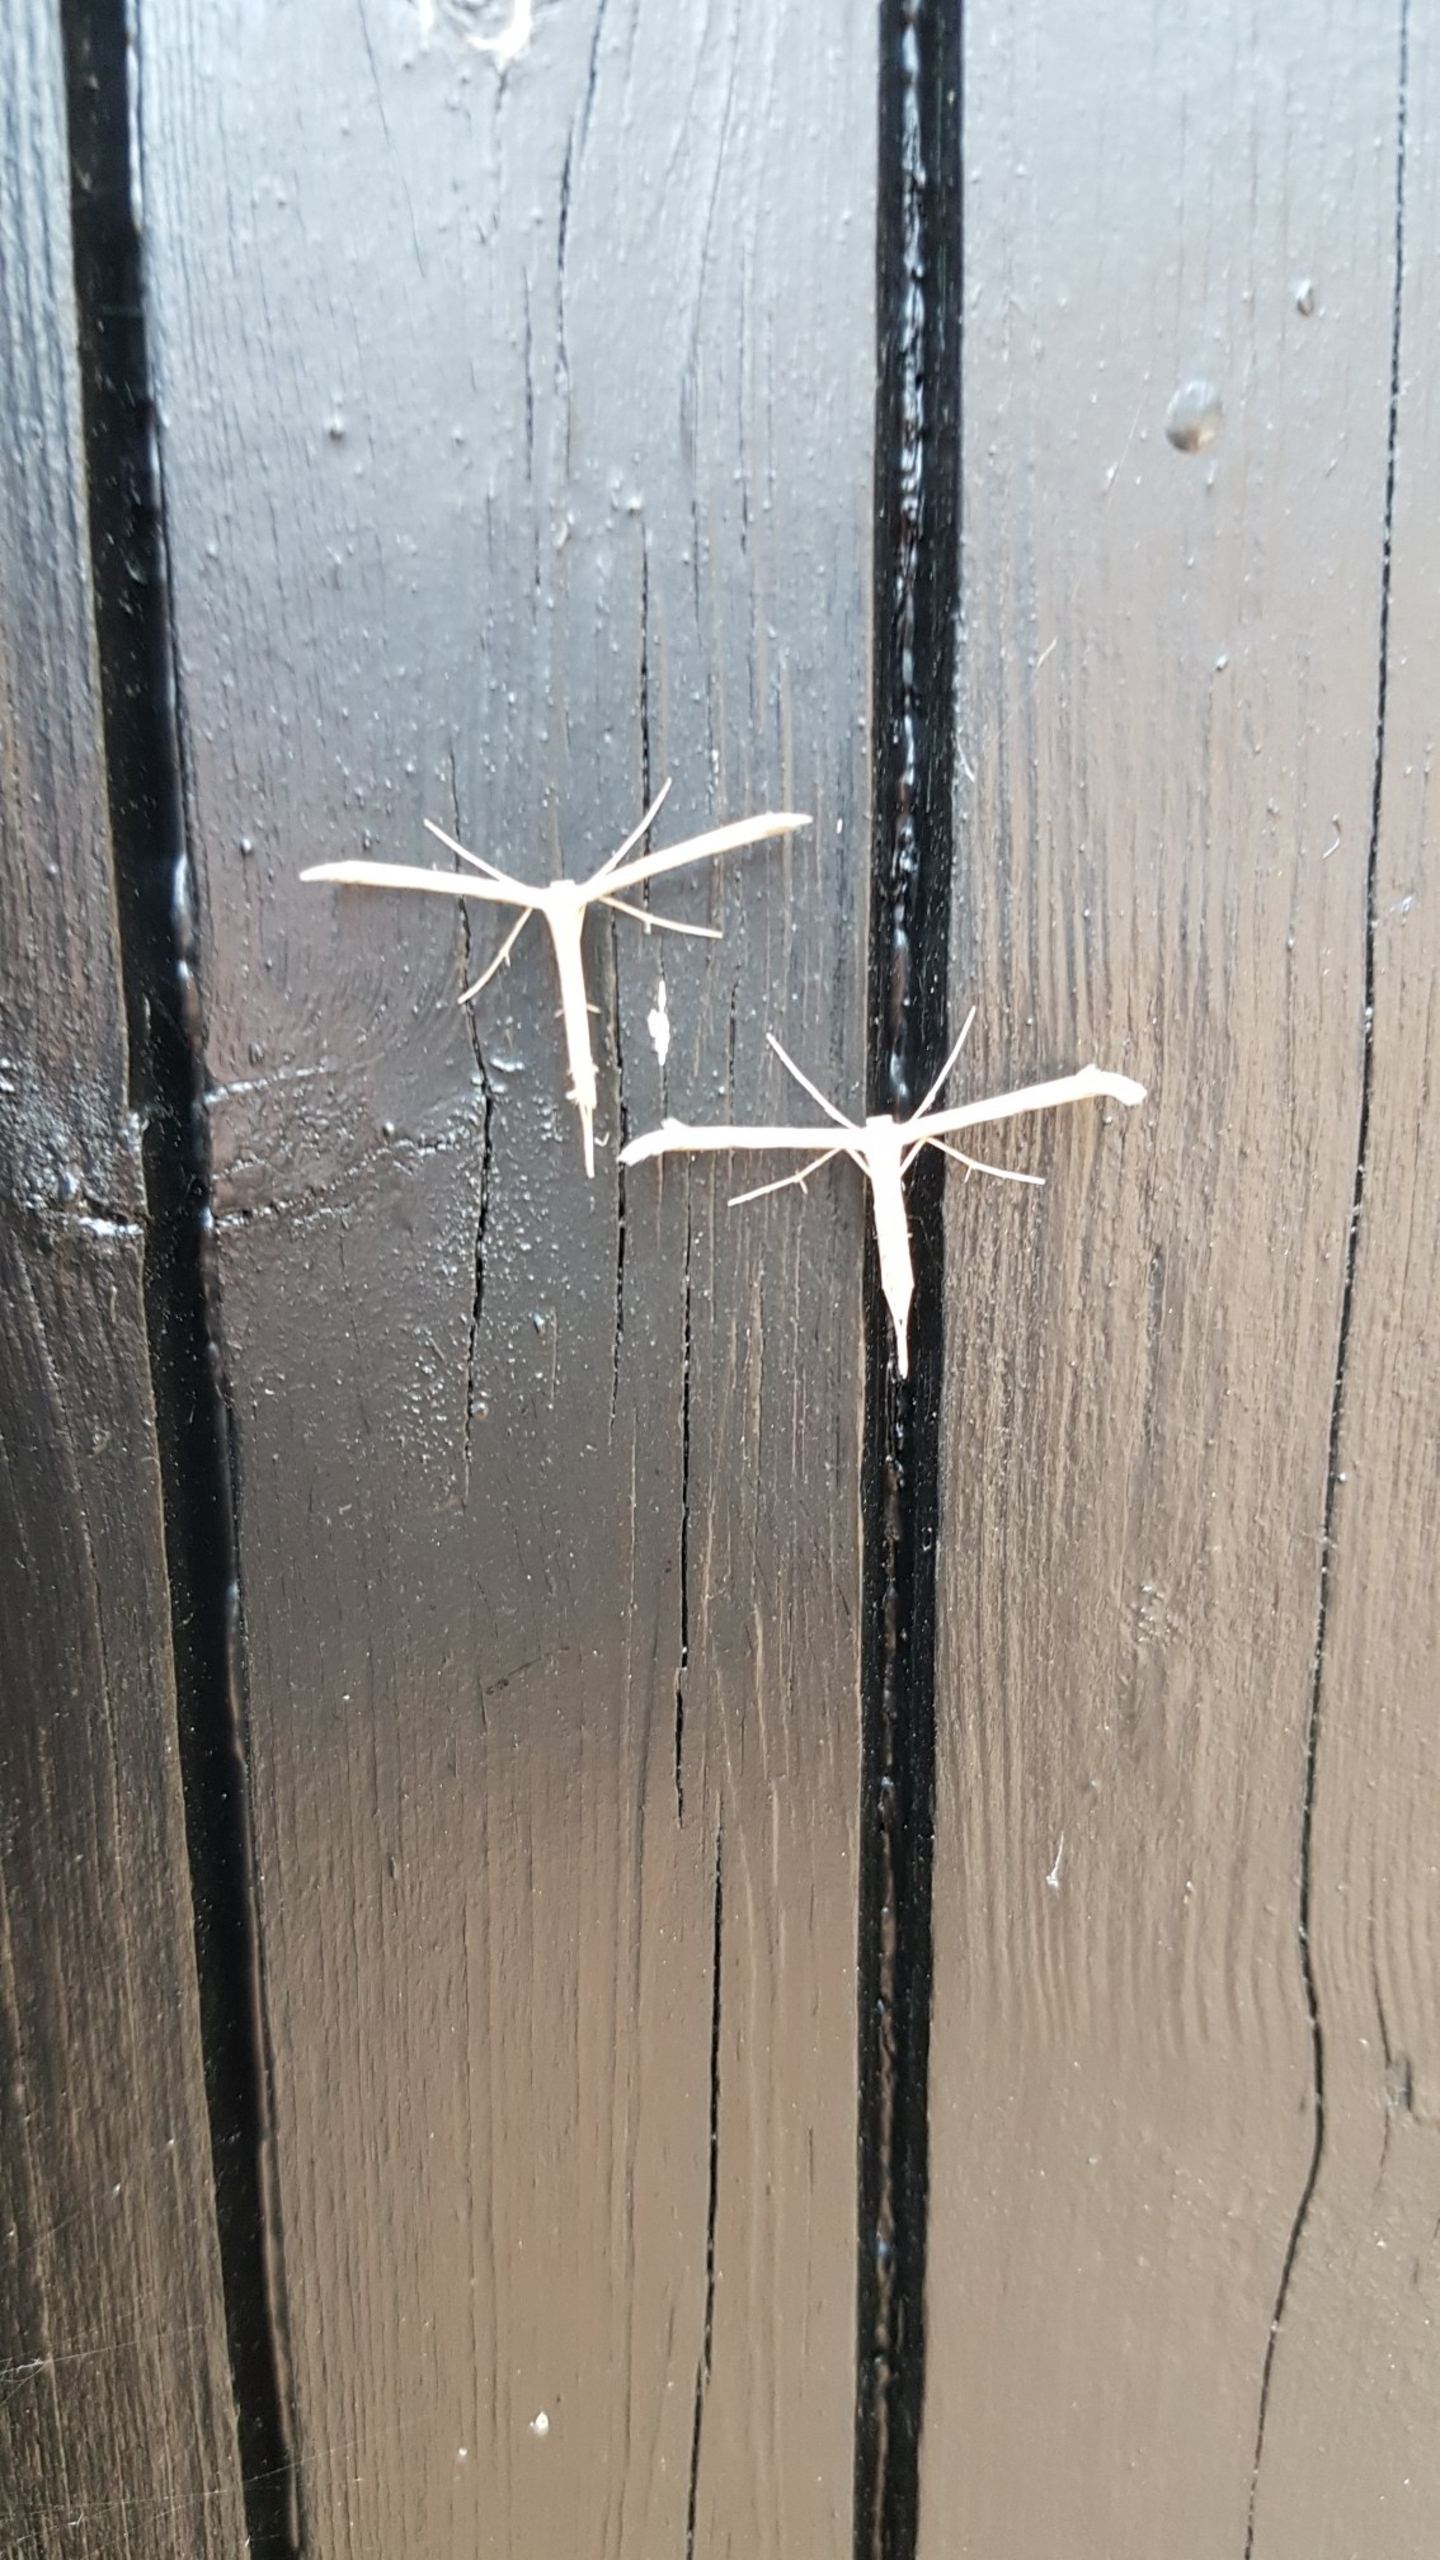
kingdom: Animalia
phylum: Arthropoda
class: Insecta
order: Lepidoptera
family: Pterophoridae
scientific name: Pterophoridae
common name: Fjermøl
